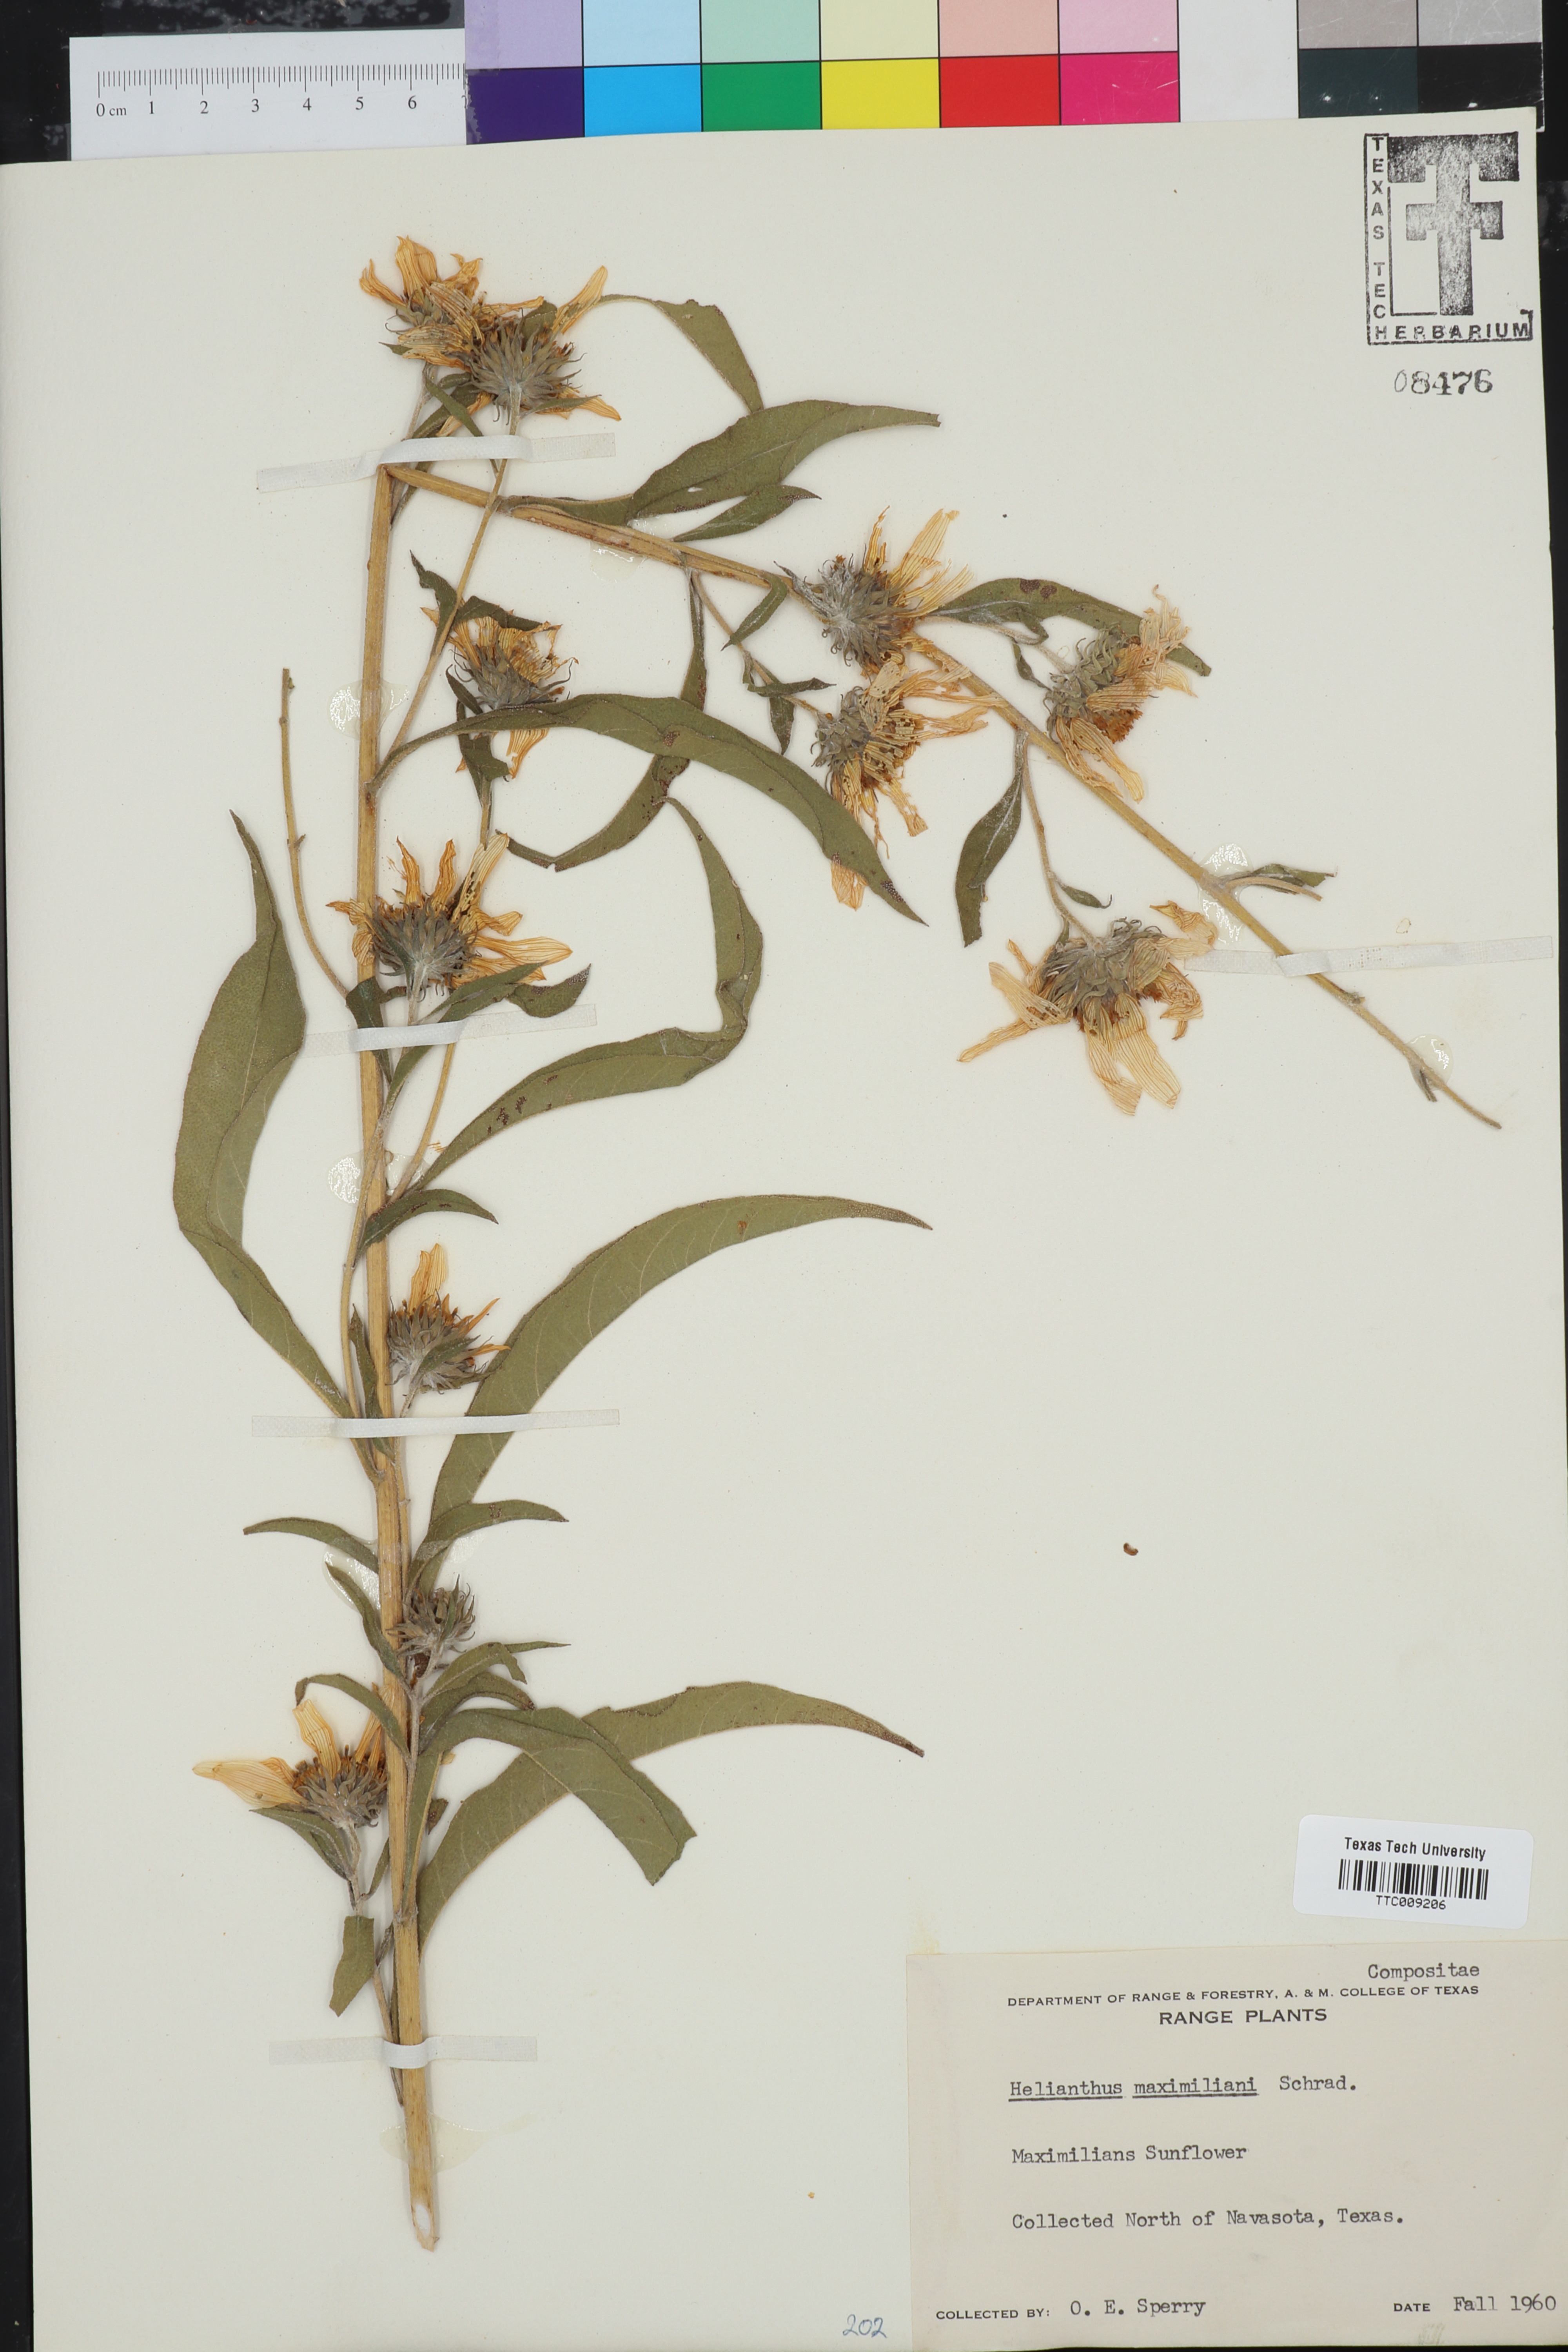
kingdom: Plantae
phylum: Tracheophyta
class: Magnoliopsida
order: Asterales
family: Asteraceae
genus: Helianthus
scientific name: Helianthus maximiliani
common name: Maximilian's sunflower
